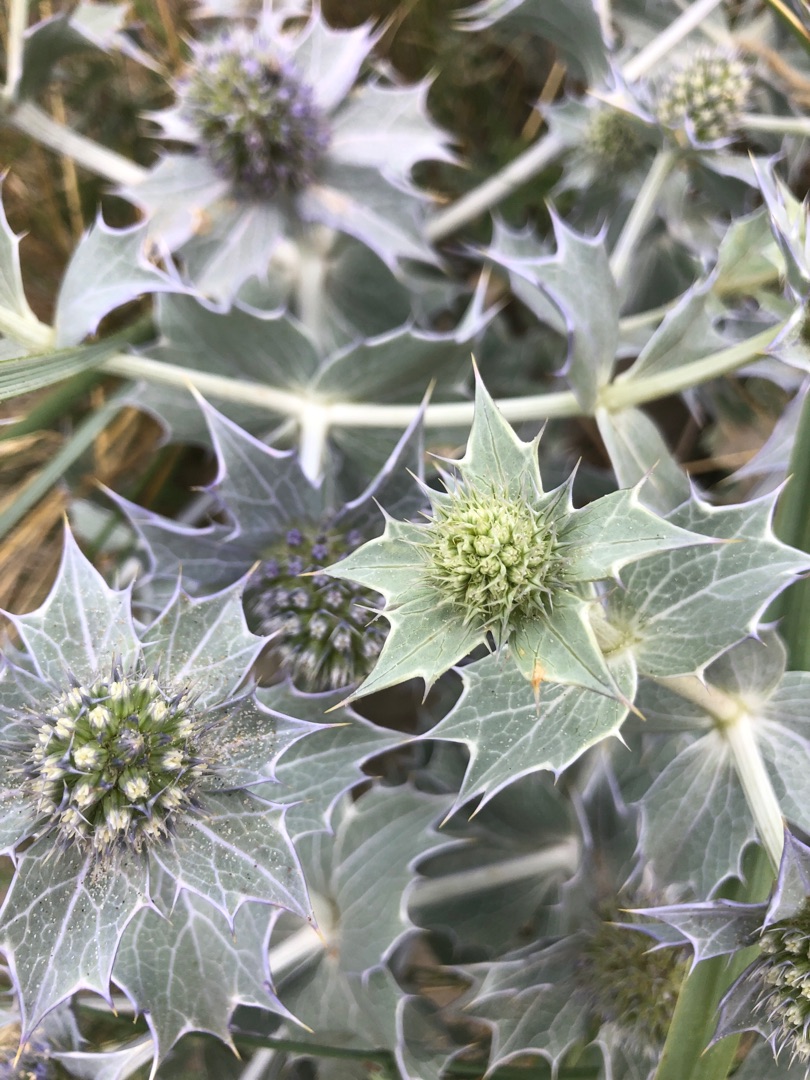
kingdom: Plantae
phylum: Tracheophyta
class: Magnoliopsida
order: Apiales
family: Apiaceae
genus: Eryngium
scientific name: Eryngium maritimum
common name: Strand-mandstro
